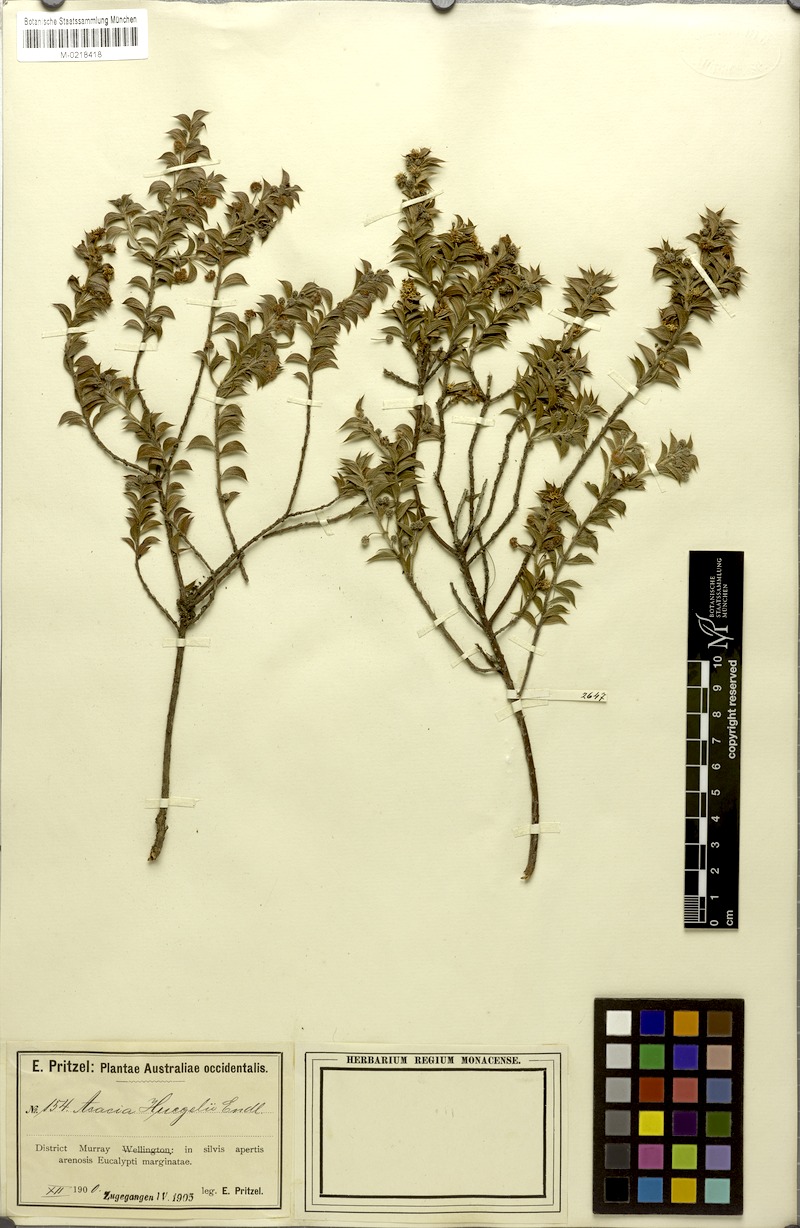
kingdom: Plantae
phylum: Tracheophyta
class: Magnoliopsida
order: Fabales
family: Fabaceae
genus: Acacia
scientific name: Acacia huegelii
